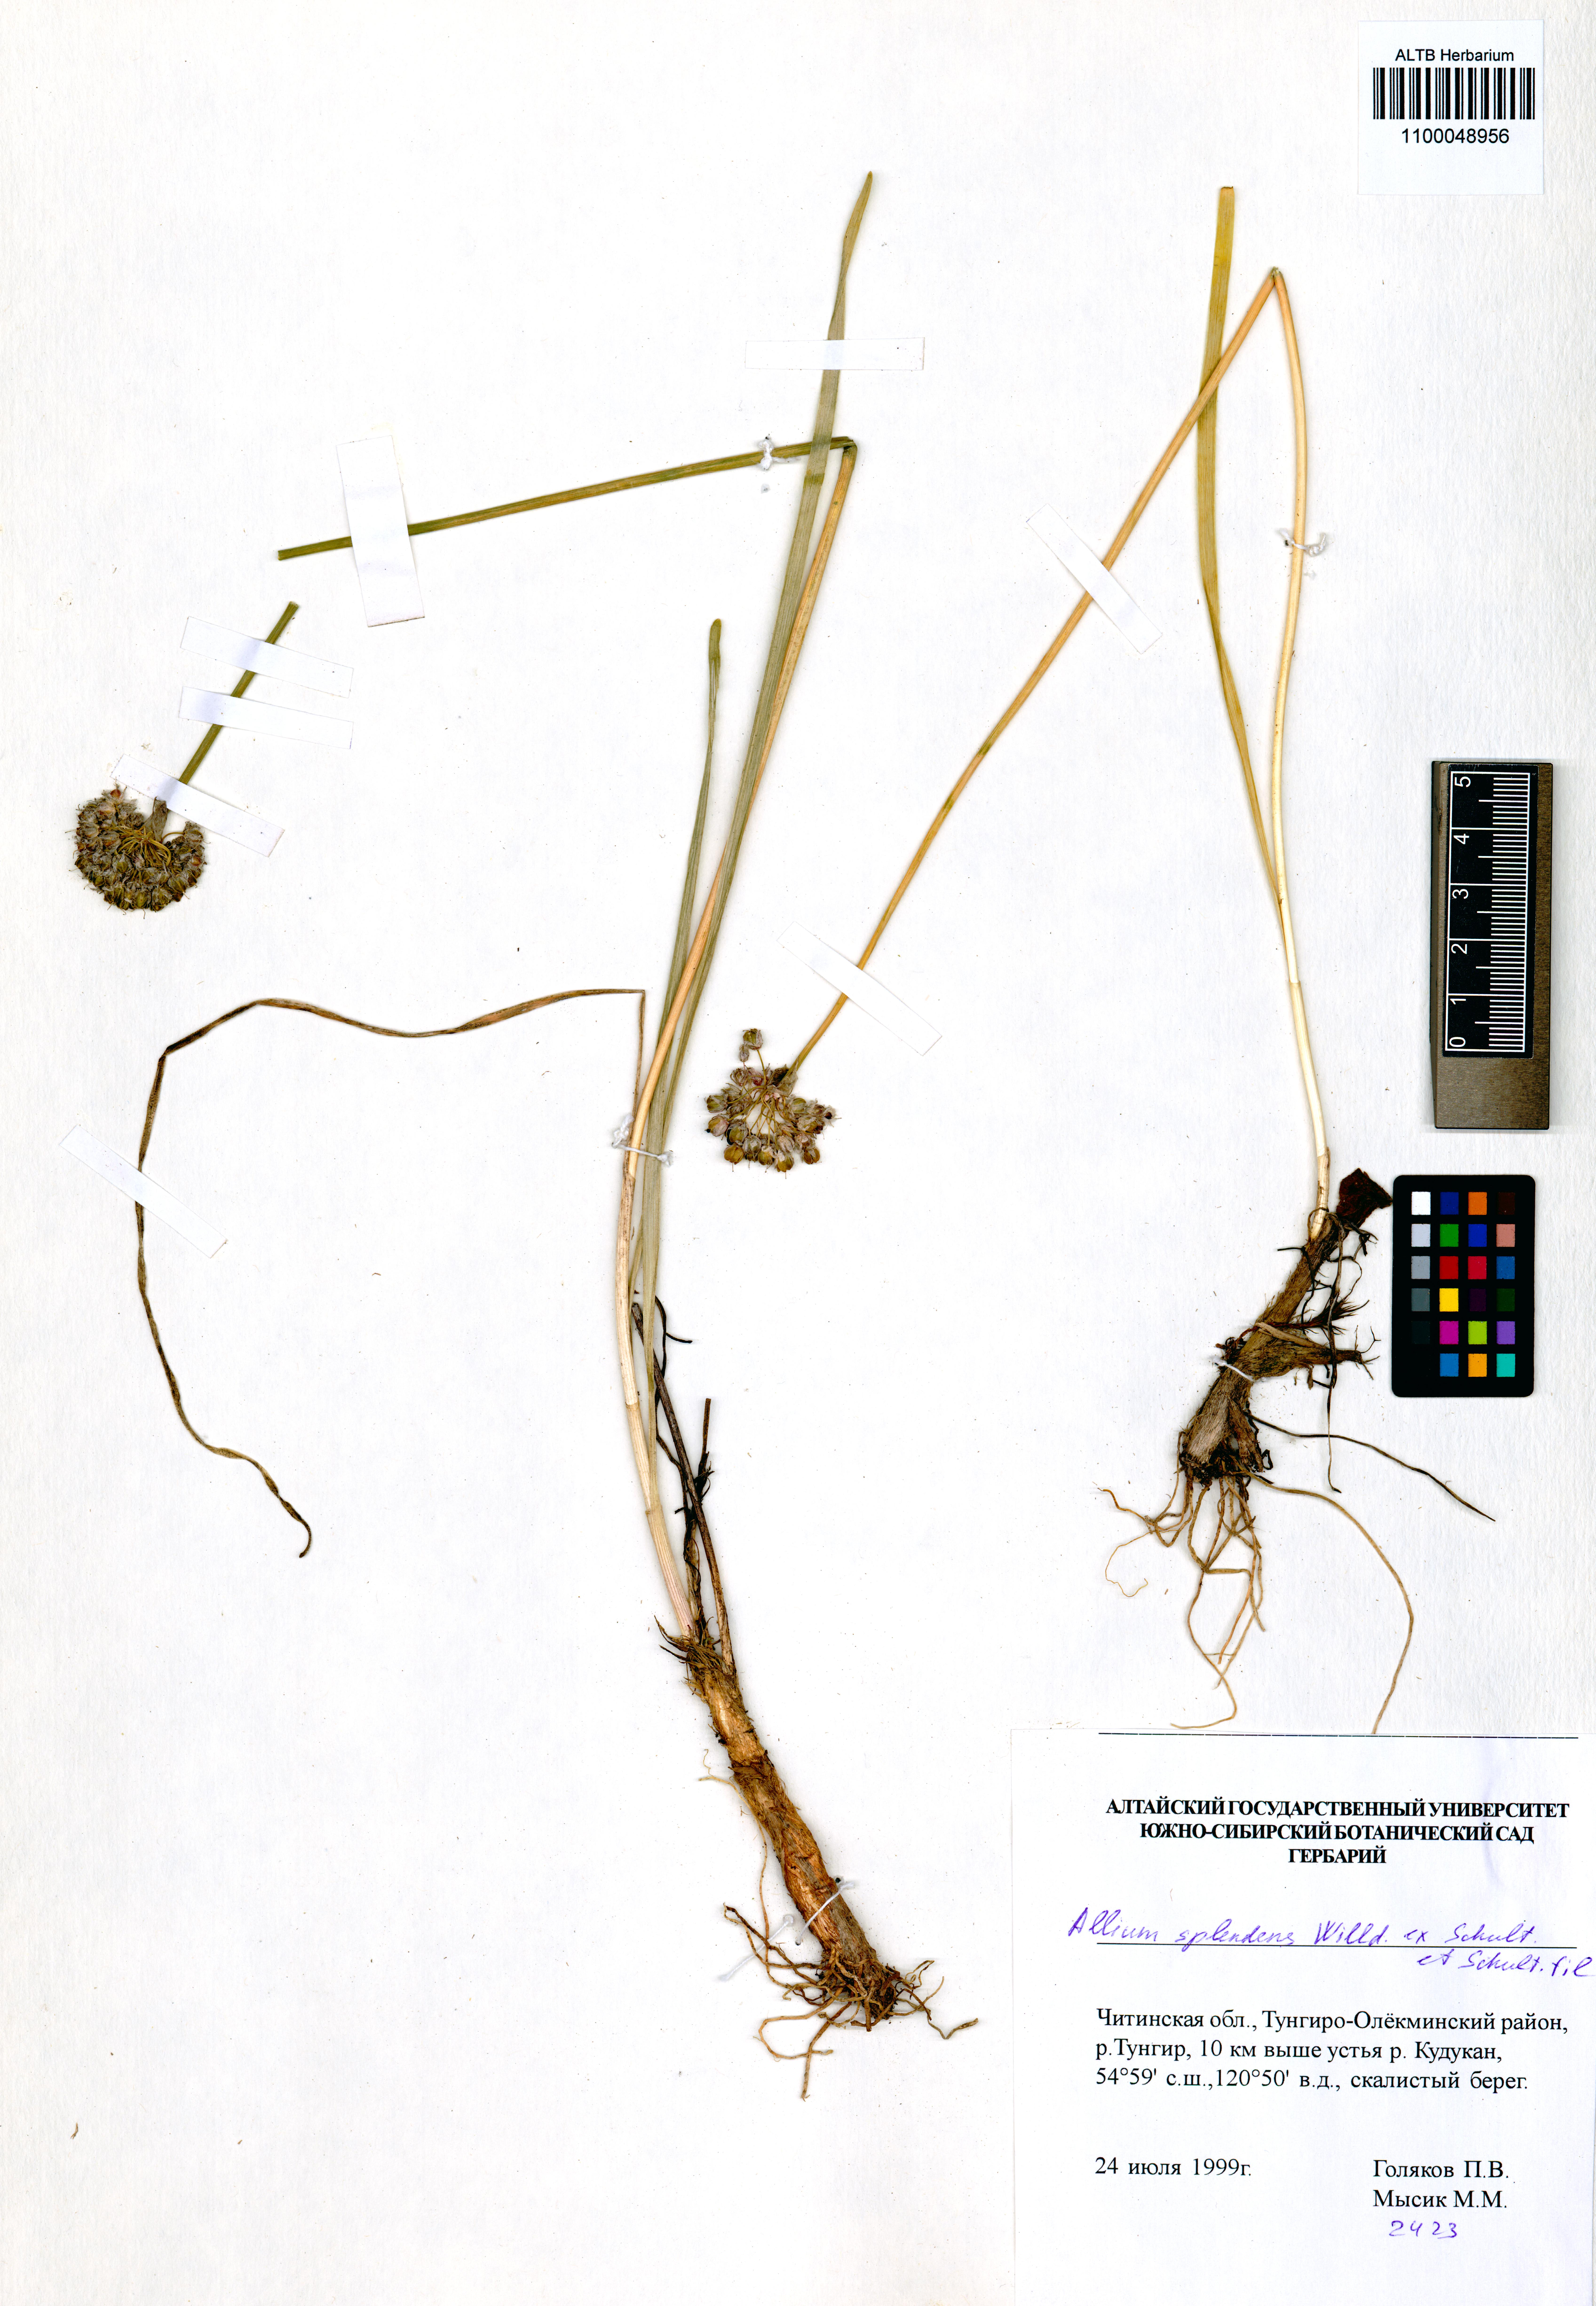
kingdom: Plantae
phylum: Tracheophyta
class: Liliopsida
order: Asparagales
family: Amaryllidaceae
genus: Allium
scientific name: Allium splendens
